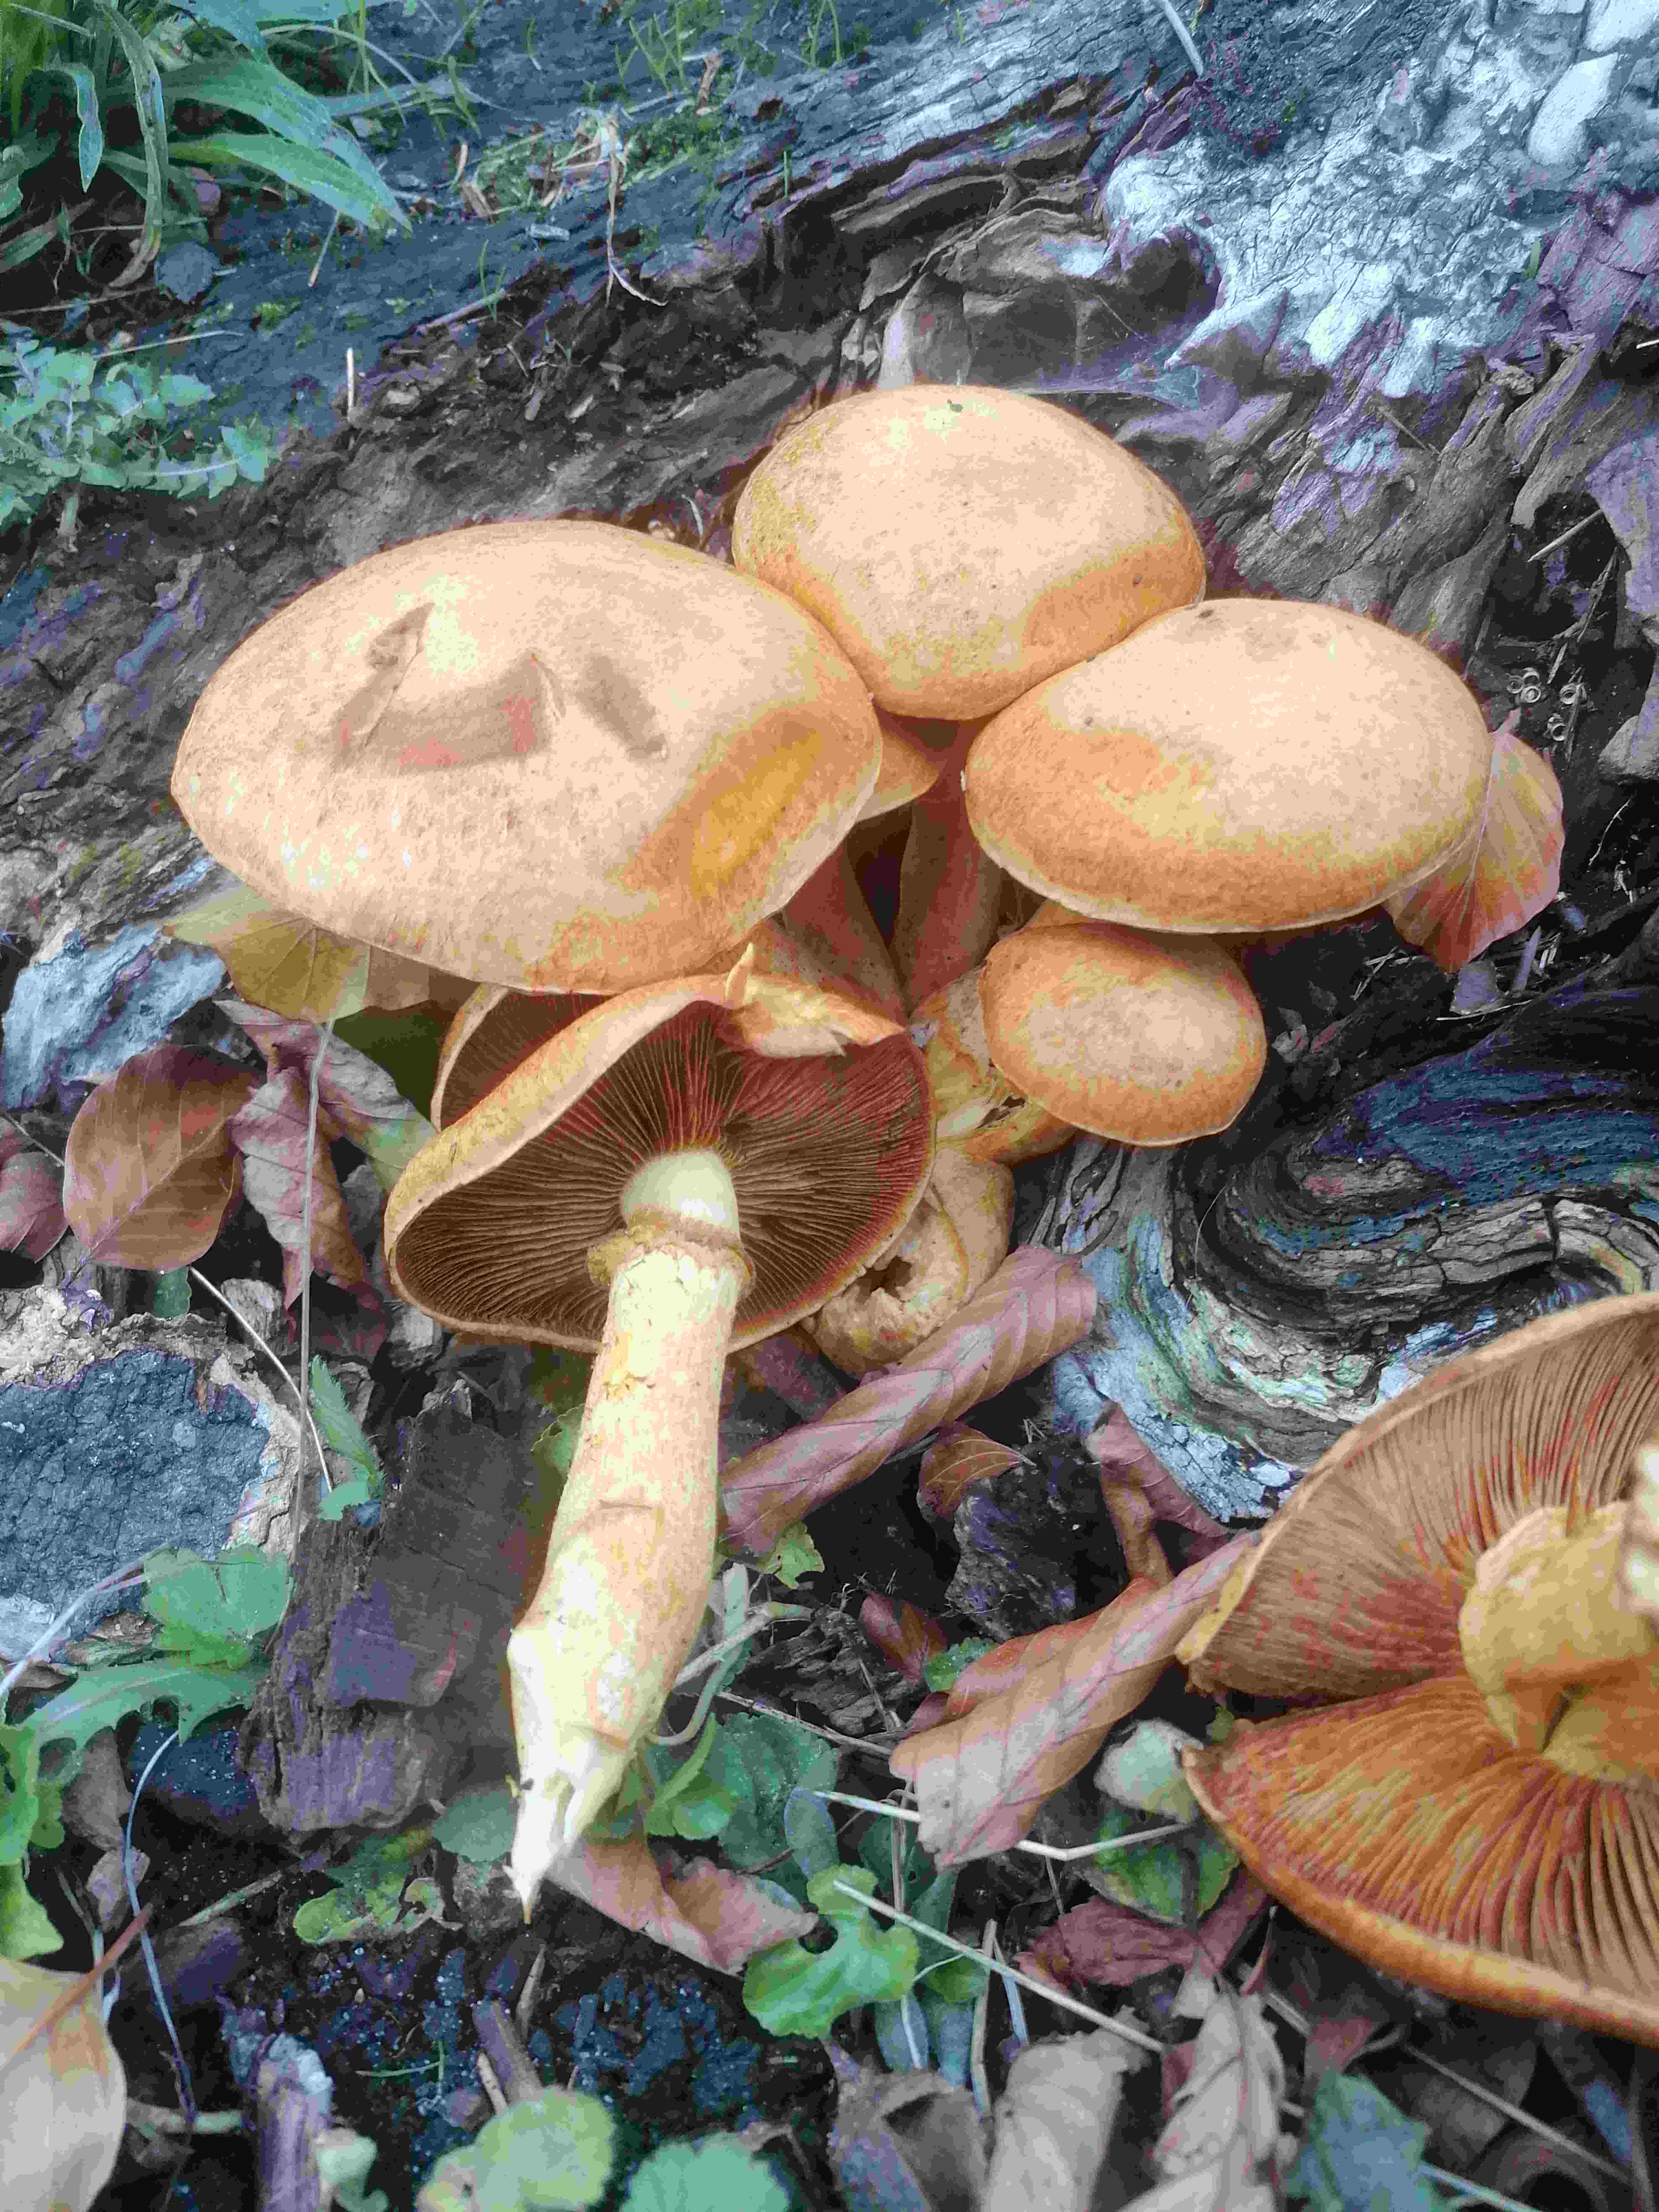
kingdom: Fungi
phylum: Basidiomycota
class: Agaricomycetes
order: Agaricales
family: Hymenogastraceae
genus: Gymnopilus
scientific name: Gymnopilus spectabilis
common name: fibret flammehat
